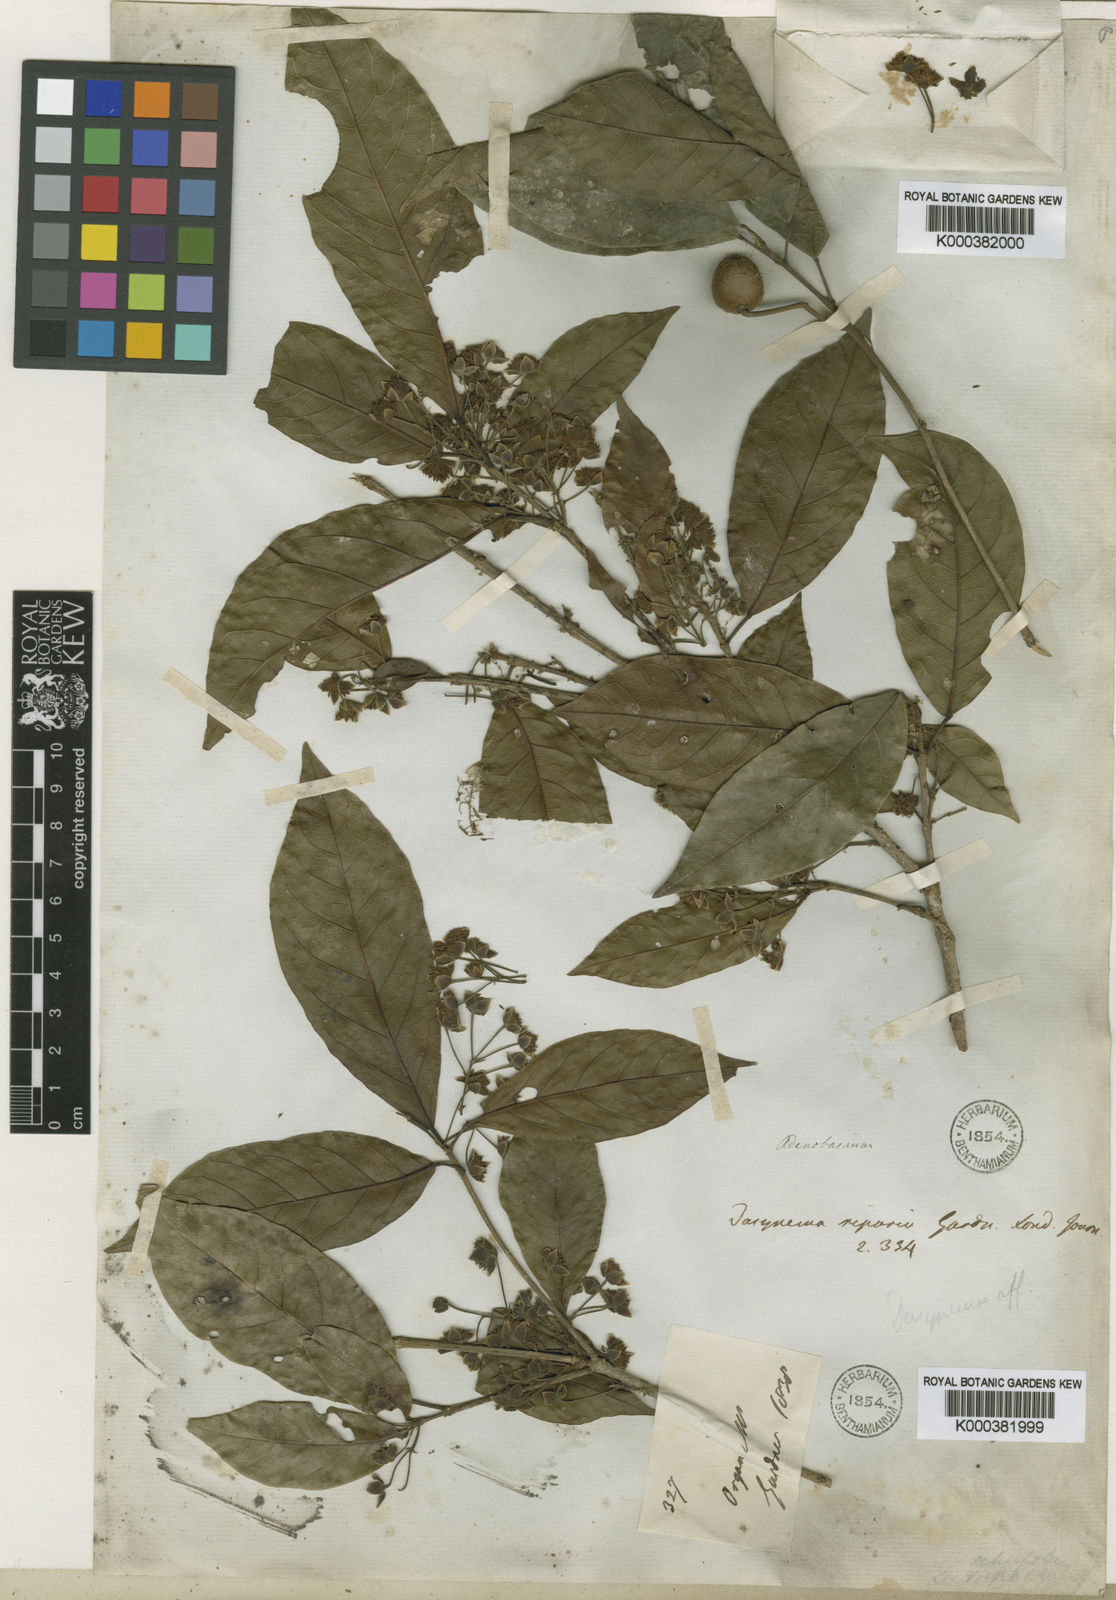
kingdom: Plantae
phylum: Tracheophyta
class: Magnoliopsida
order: Oxalidales
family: Elaeocarpaceae
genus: Sloanea
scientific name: Sloanea hirsuta
